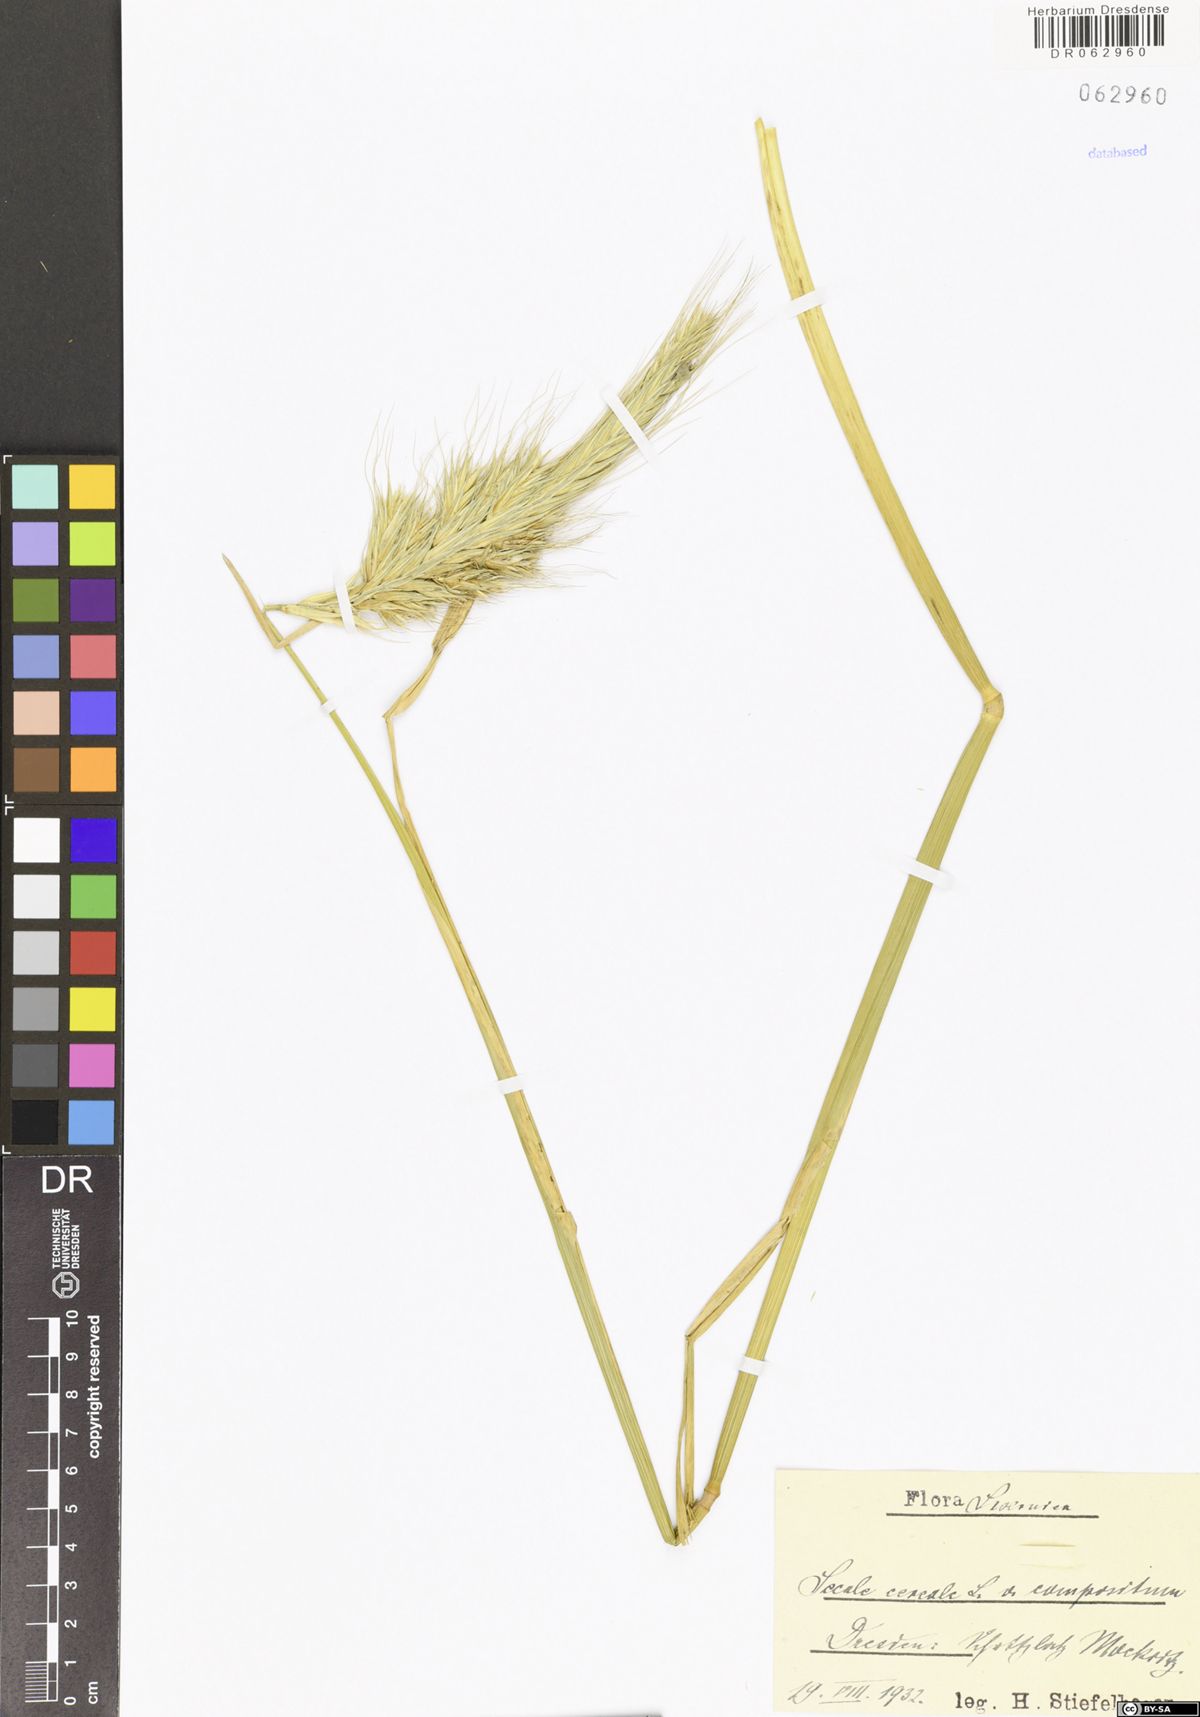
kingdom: Plantae
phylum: Tracheophyta
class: Liliopsida
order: Poales
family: Poaceae
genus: Secale
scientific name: Secale cereale
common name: Rye
